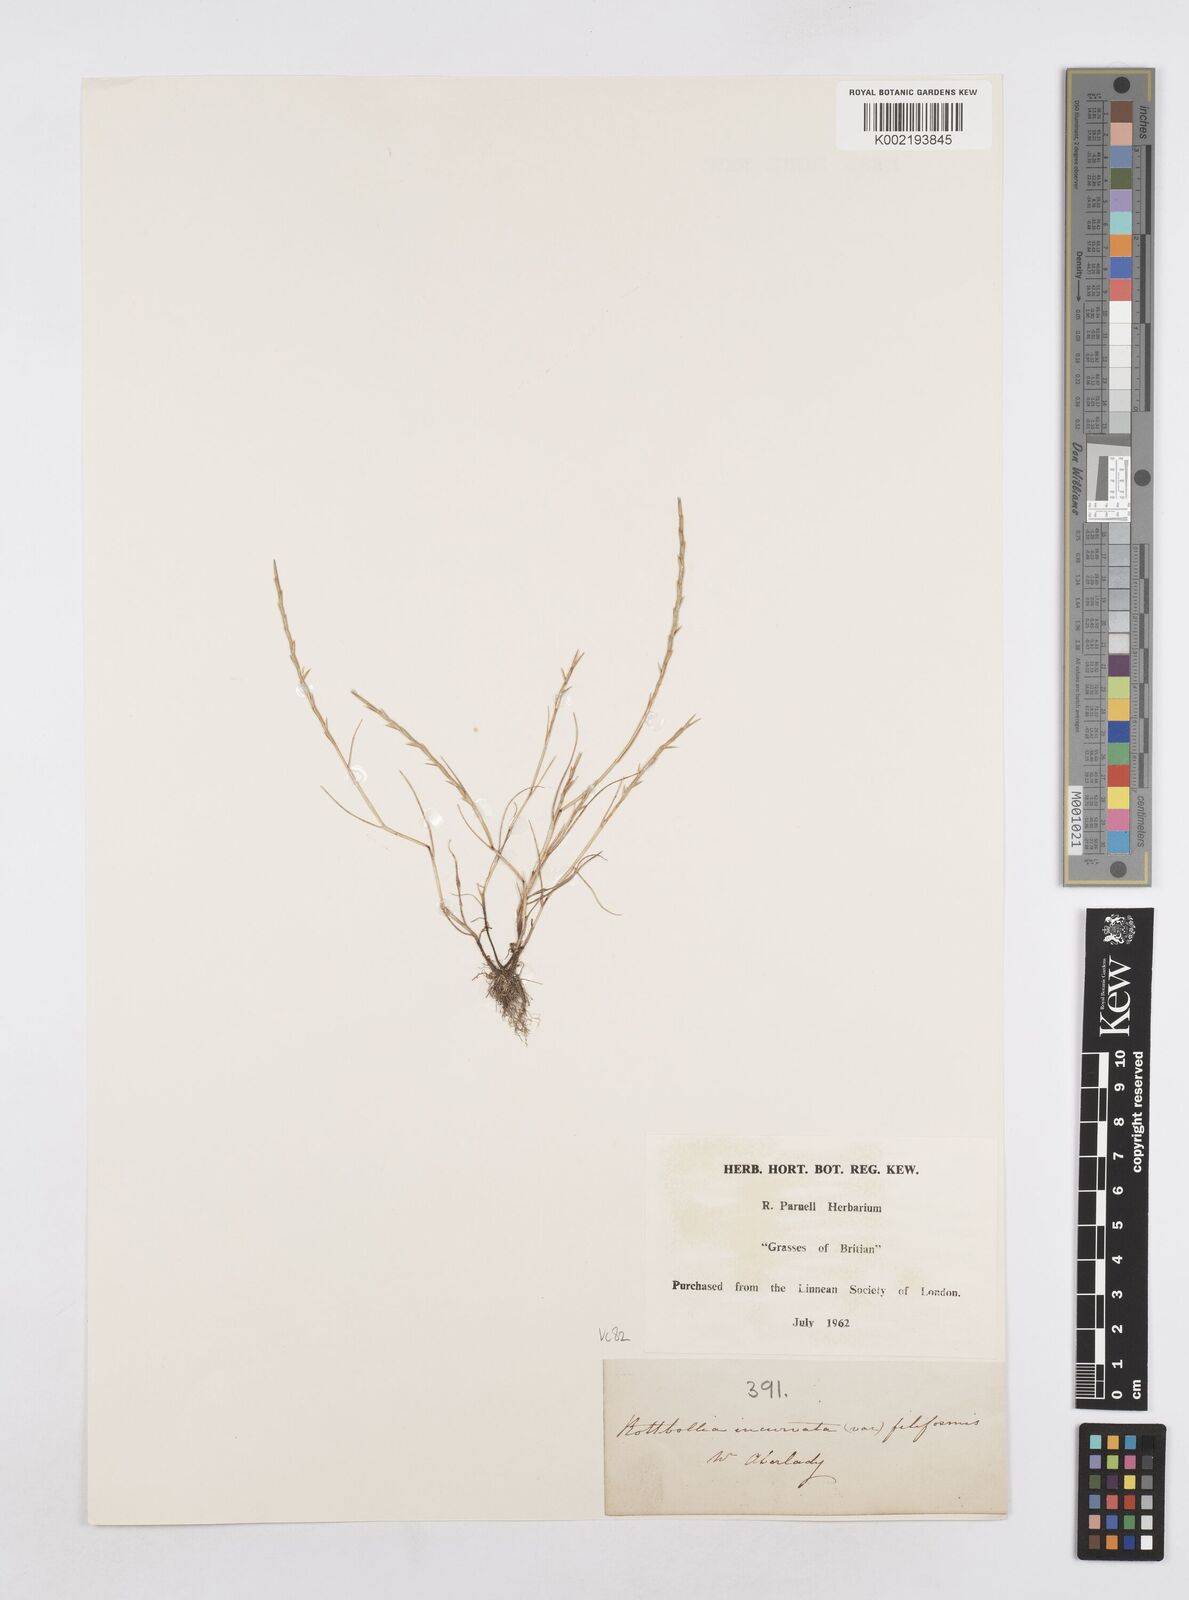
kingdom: Plantae
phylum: Tracheophyta
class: Liliopsida
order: Poales
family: Poaceae
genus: Parapholis
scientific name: Parapholis strigosa
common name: Hard-grass
